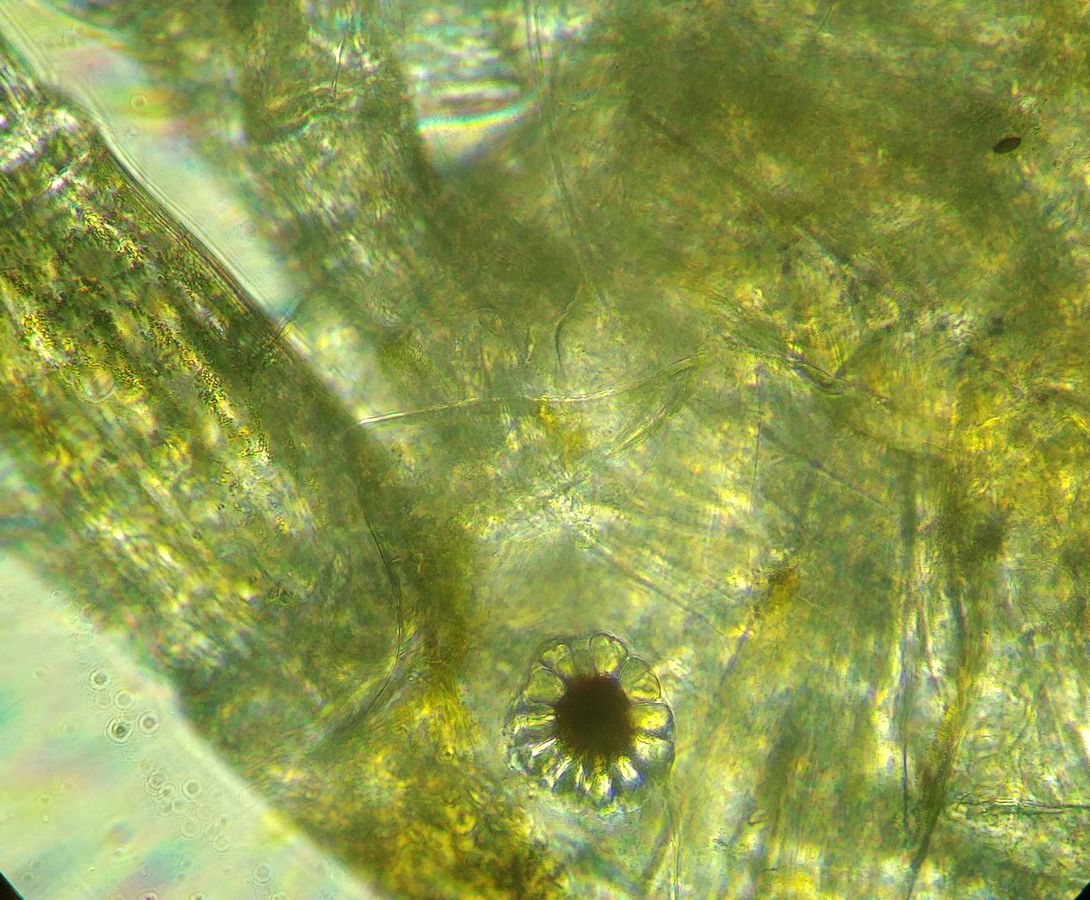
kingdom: Animalia
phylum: Arthropoda
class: Malacostraca
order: Amphipoda
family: Stenothoidae
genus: Metopa
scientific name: Metopa pusilla
